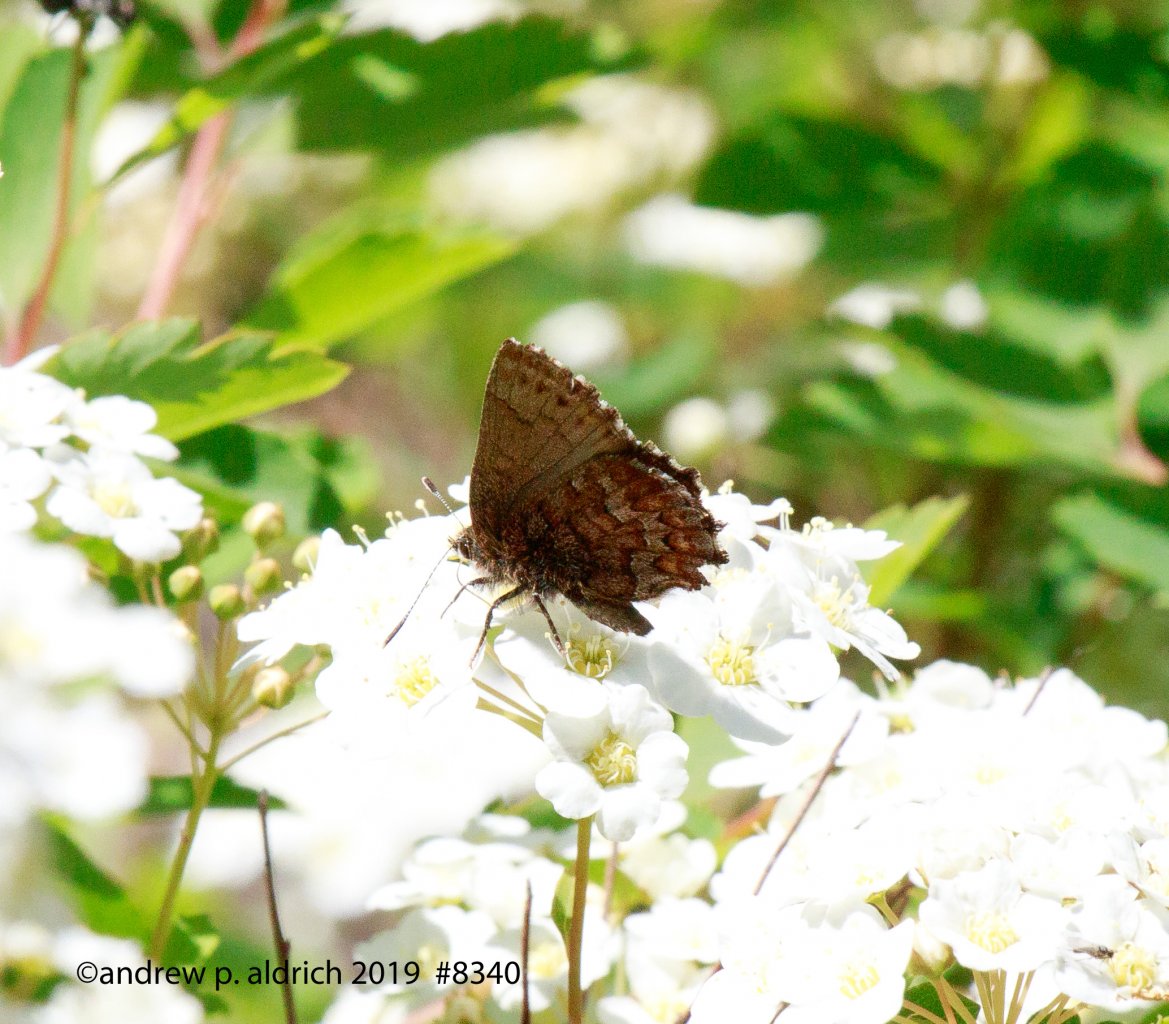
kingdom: Animalia
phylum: Arthropoda
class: Insecta
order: Lepidoptera
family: Lycaenidae
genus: Incisalia
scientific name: Incisalia niphon
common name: Eastern Pine Elfin
